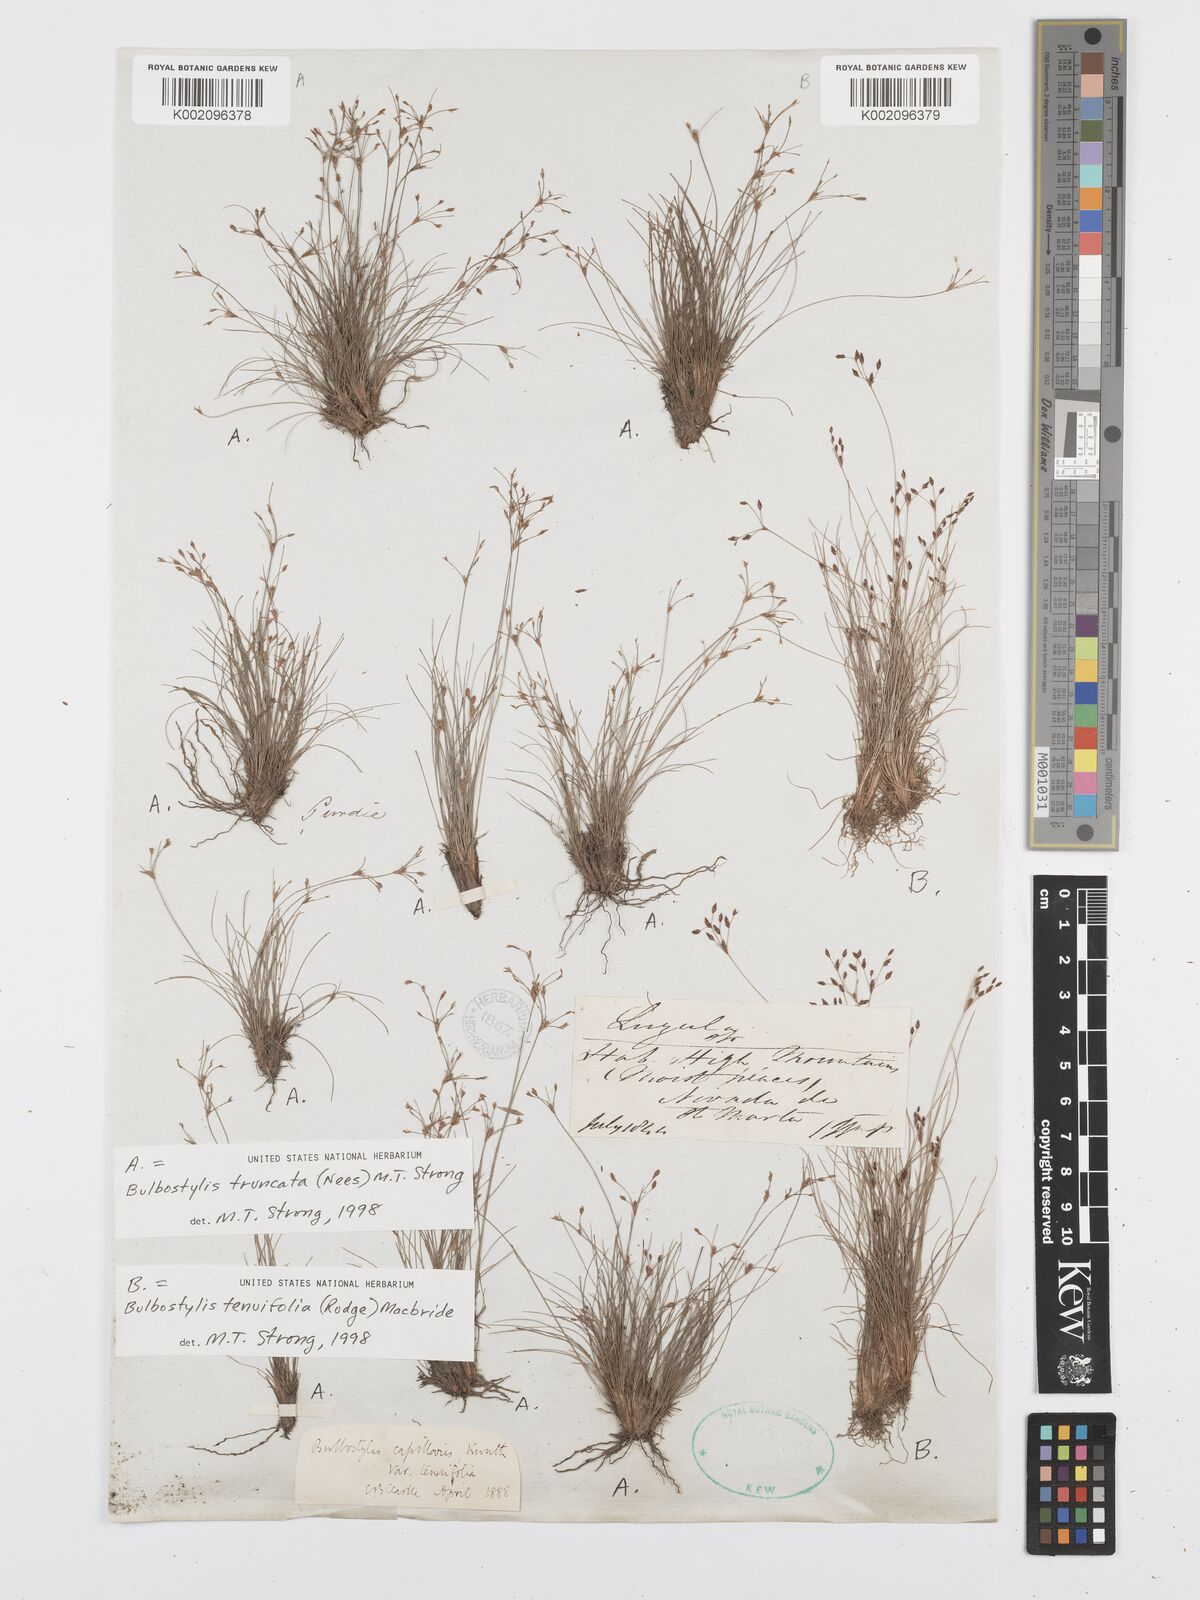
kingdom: Plantae
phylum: Tracheophyta
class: Liliopsida
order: Poales
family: Cyperaceae
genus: Bulbostylis
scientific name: Bulbostylis truncata
